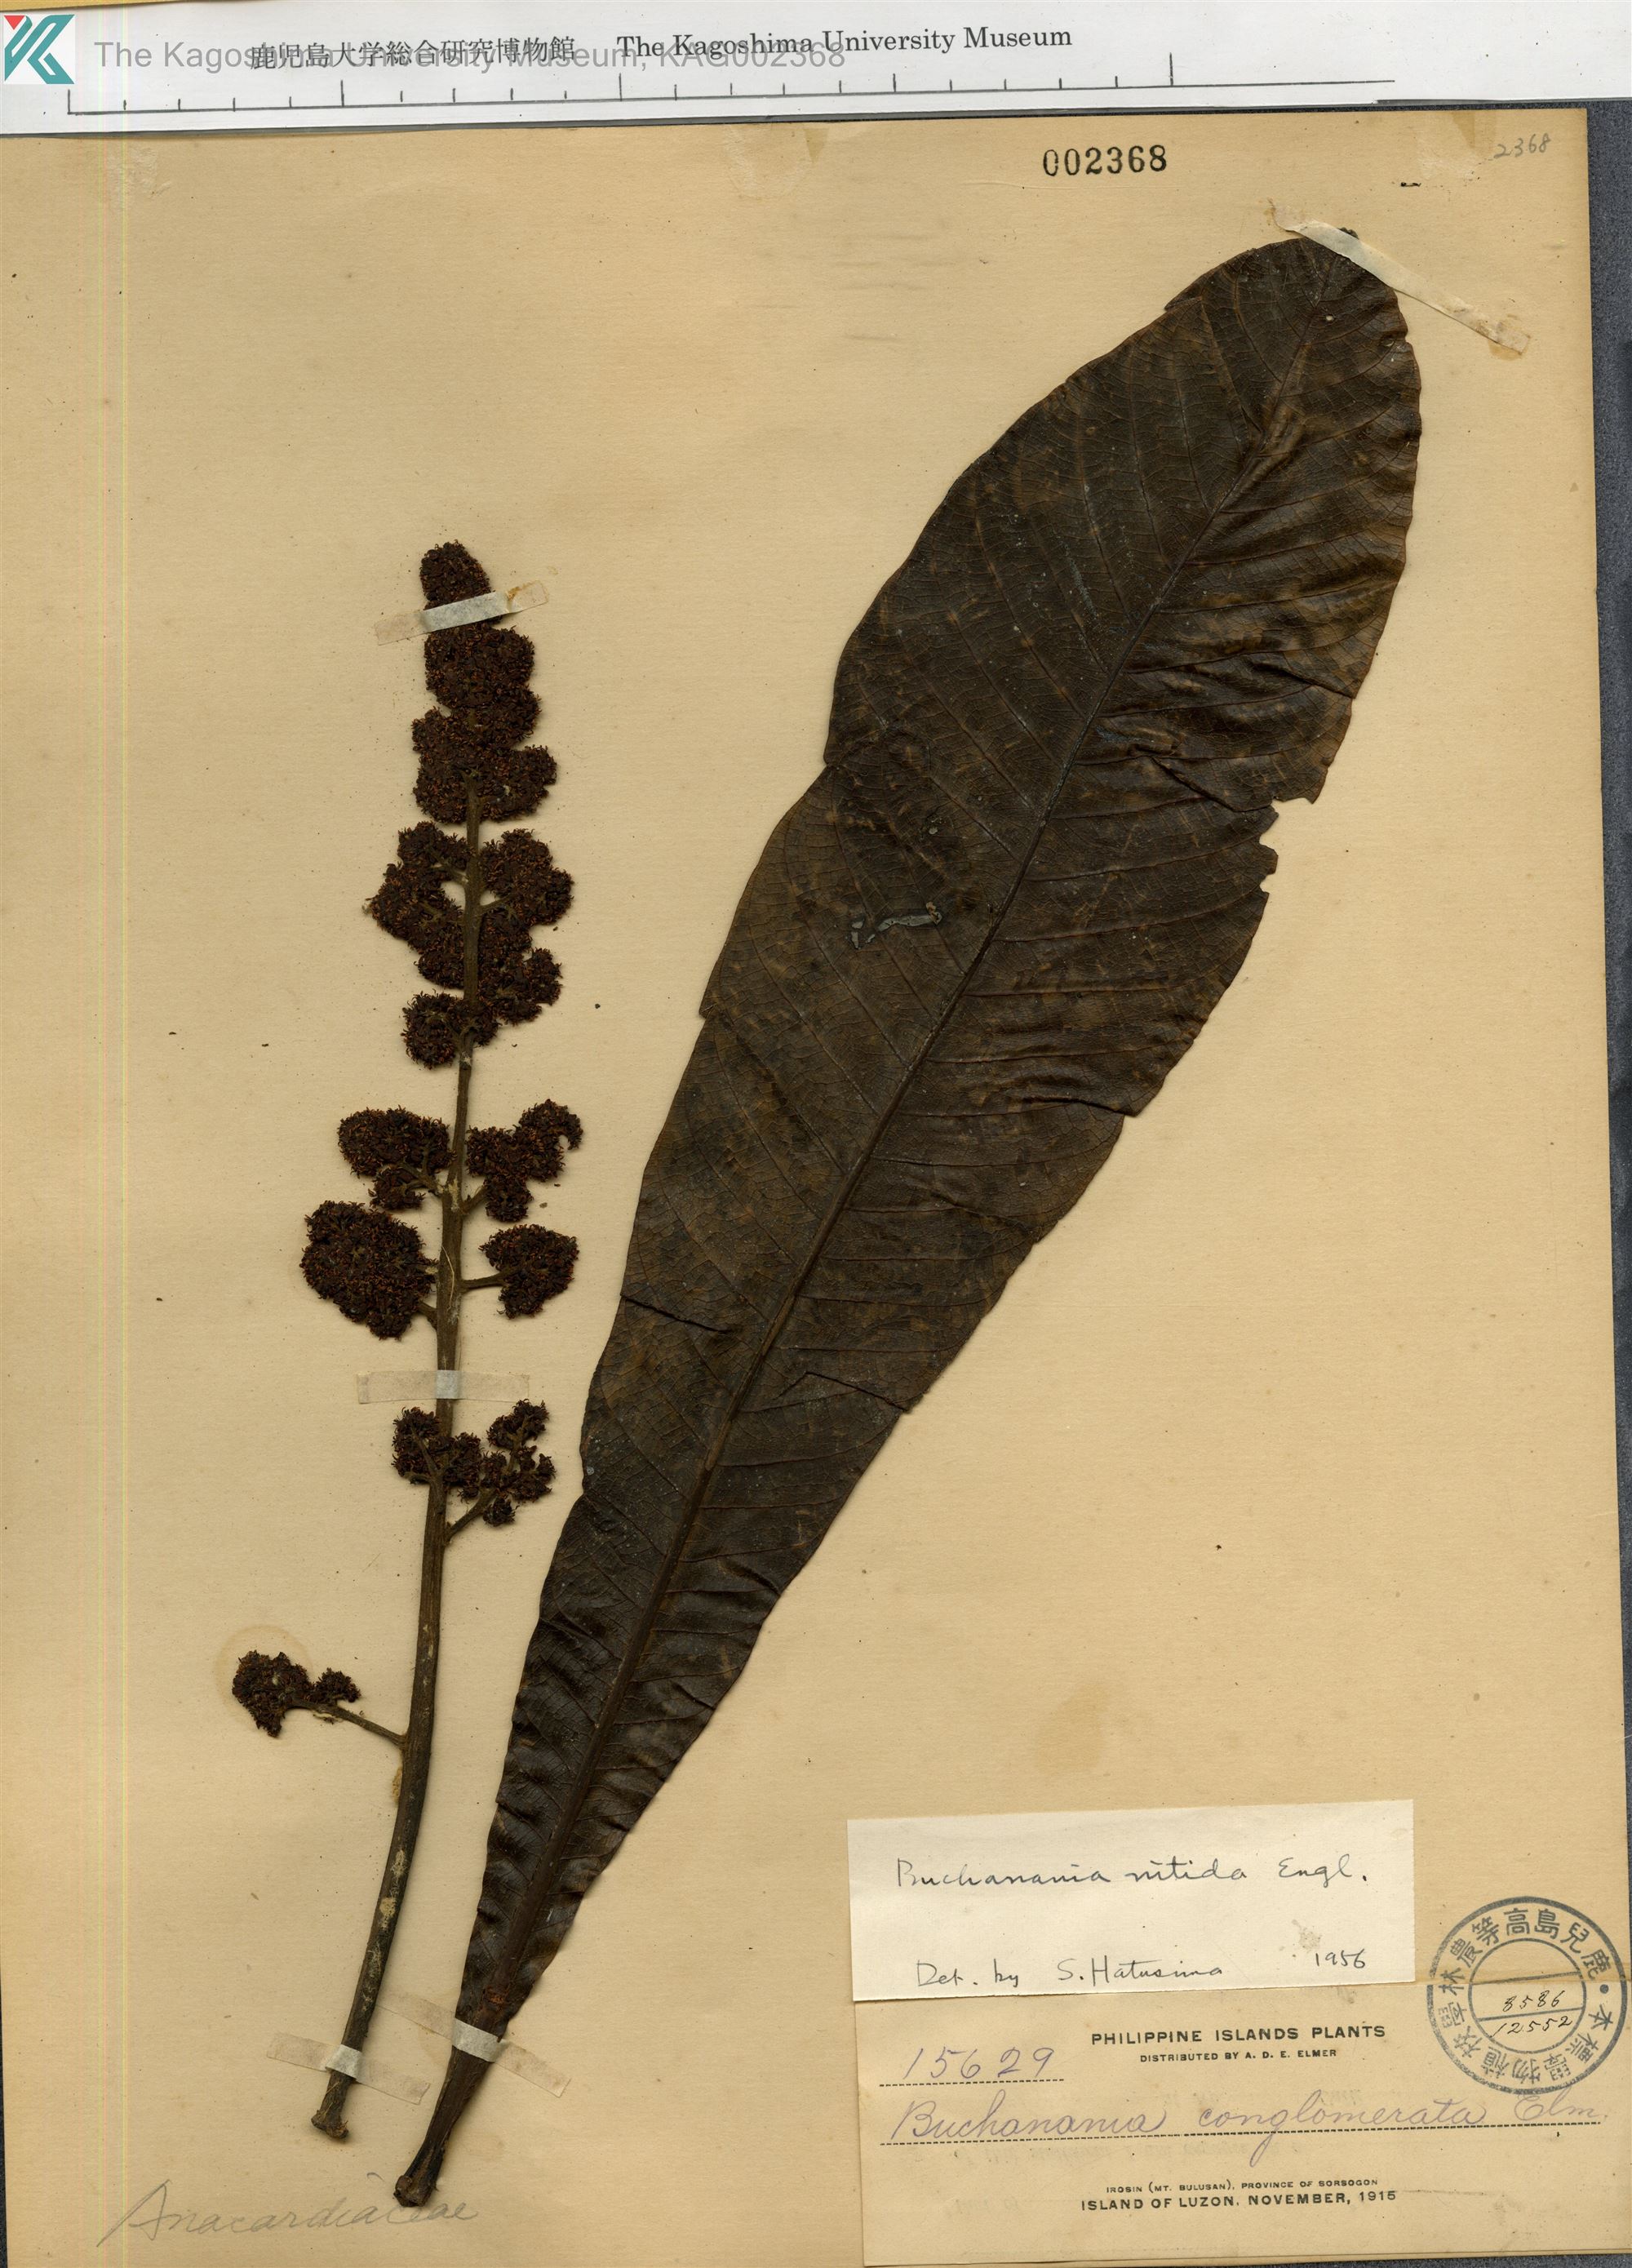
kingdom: Plantae
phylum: Tracheophyta
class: Magnoliopsida
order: Sapindales
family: Anacardiaceae
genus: Buchanania
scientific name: Buchanania nitida
